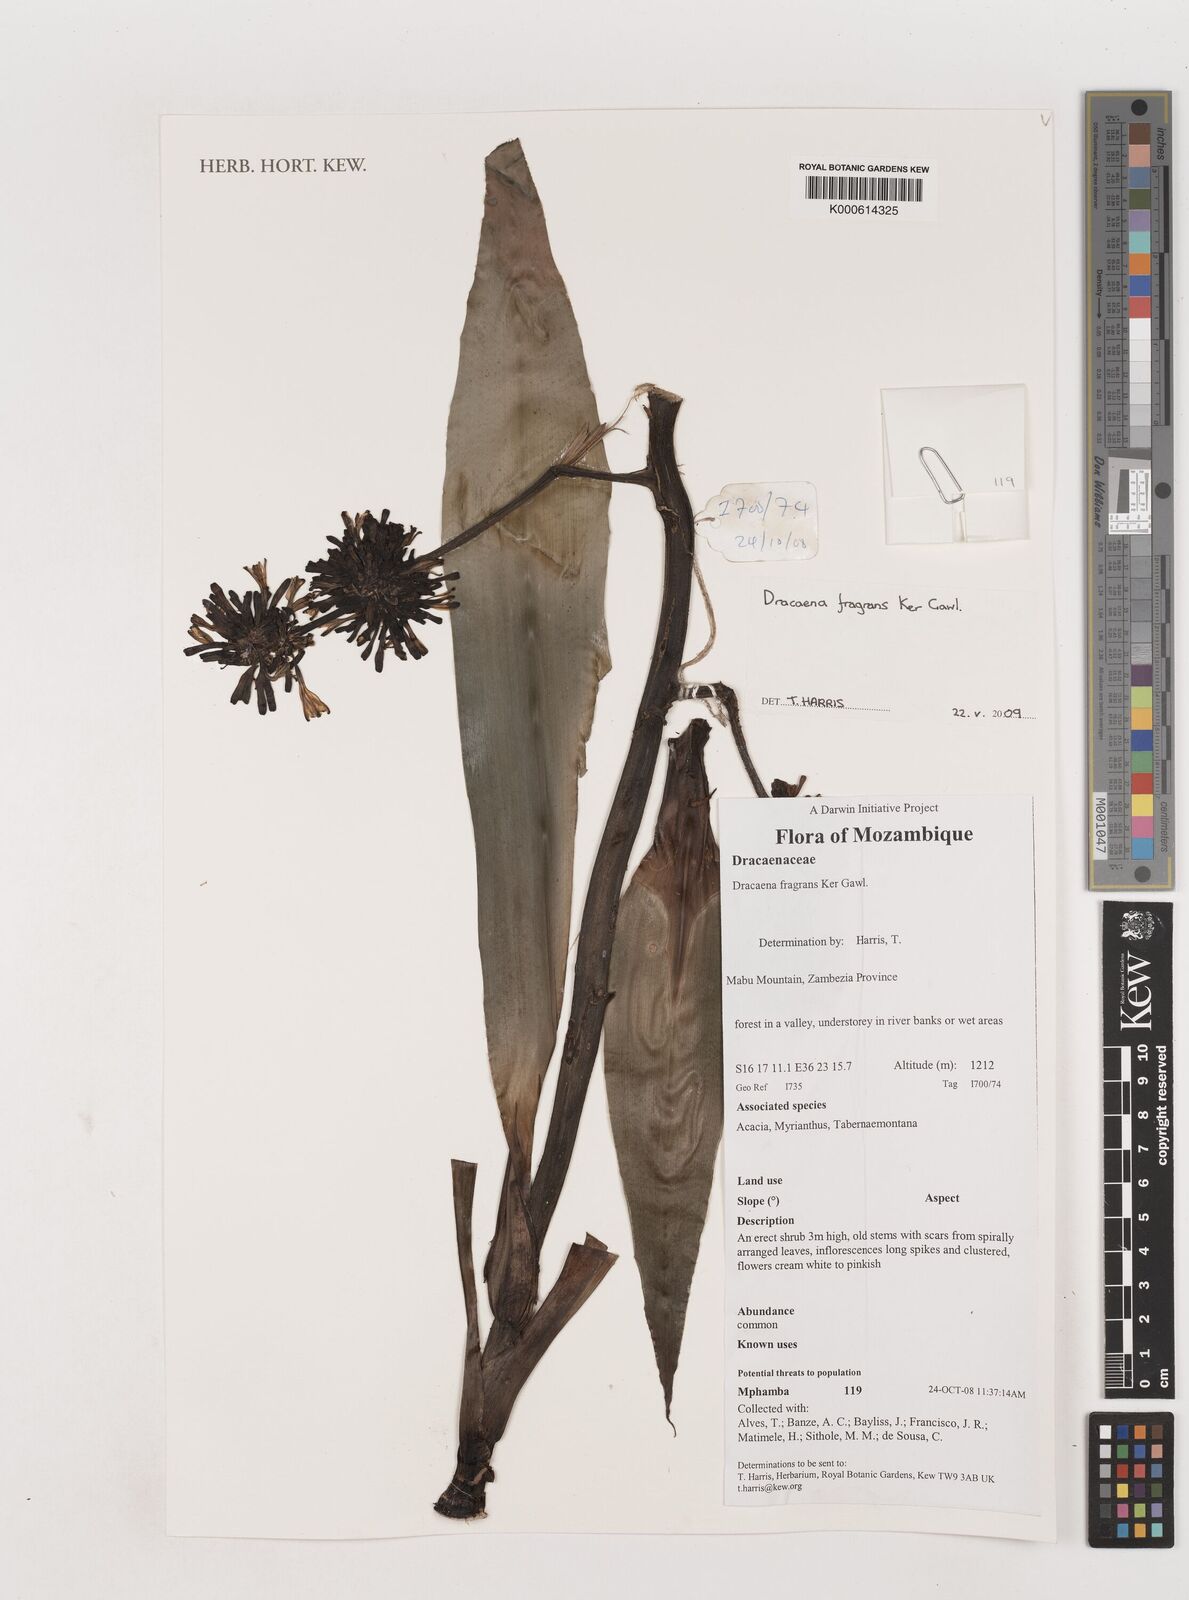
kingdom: Plantae
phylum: Tracheophyta
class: Liliopsida
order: Asparagales
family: Asparagaceae
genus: Dracaena
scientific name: Dracaena fragrans
